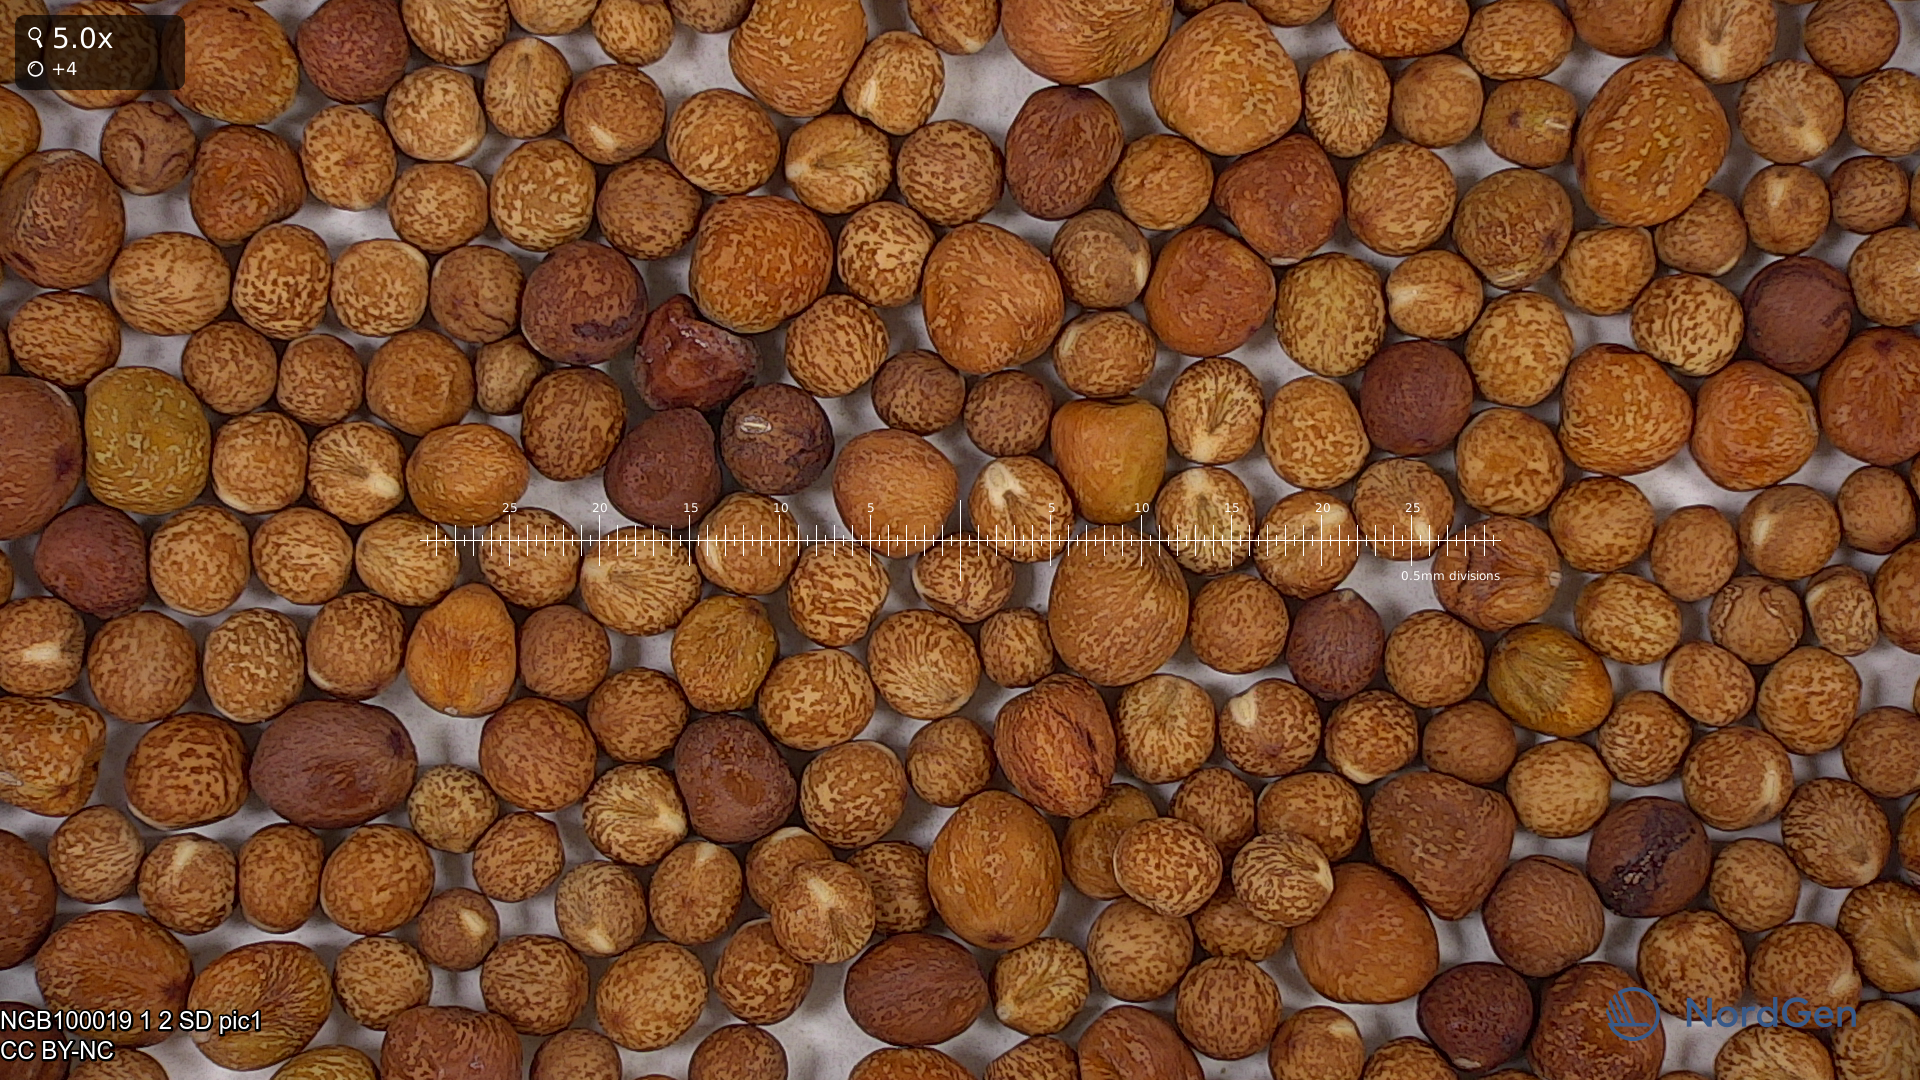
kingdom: Plantae
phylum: Tracheophyta
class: Magnoliopsida
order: Fabales
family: Fabaceae
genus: Lathyrus
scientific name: Lathyrus oleraceus
